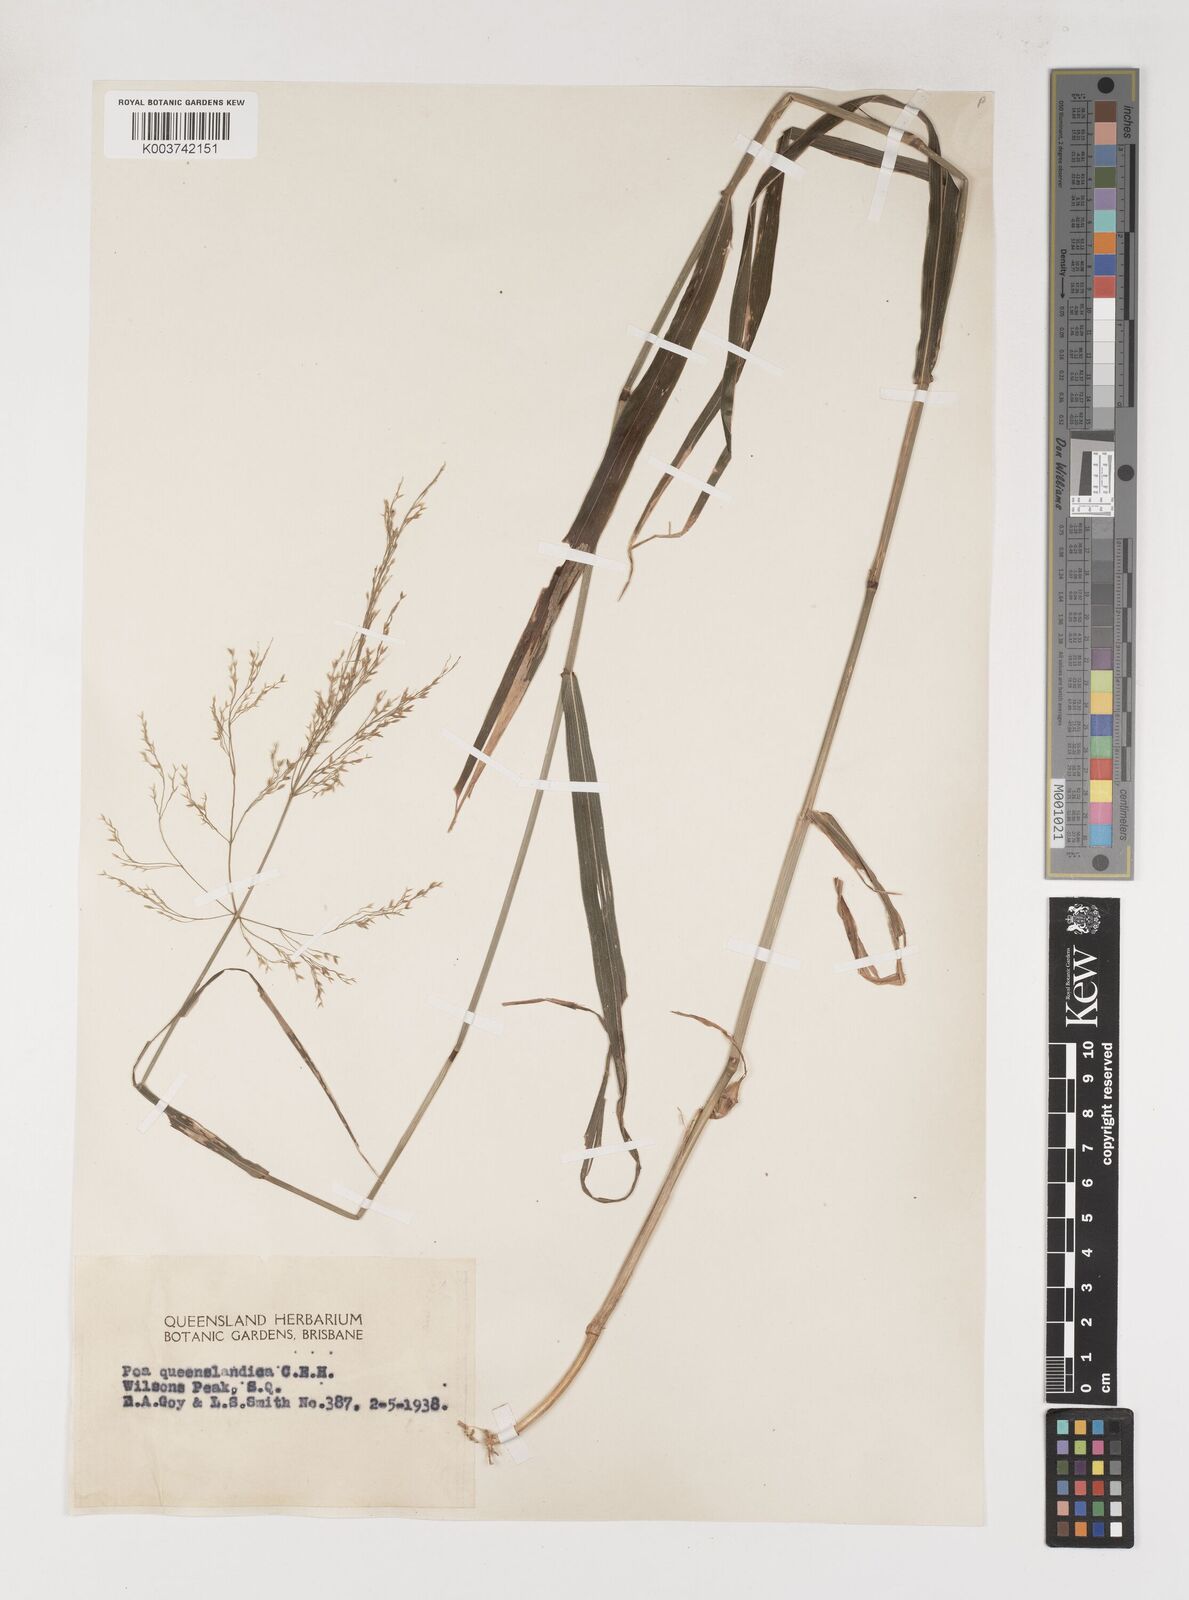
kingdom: Plantae
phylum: Tracheophyta
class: Liliopsida
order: Poales
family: Poaceae
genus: Sylvipoa
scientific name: Sylvipoa queenslandica
